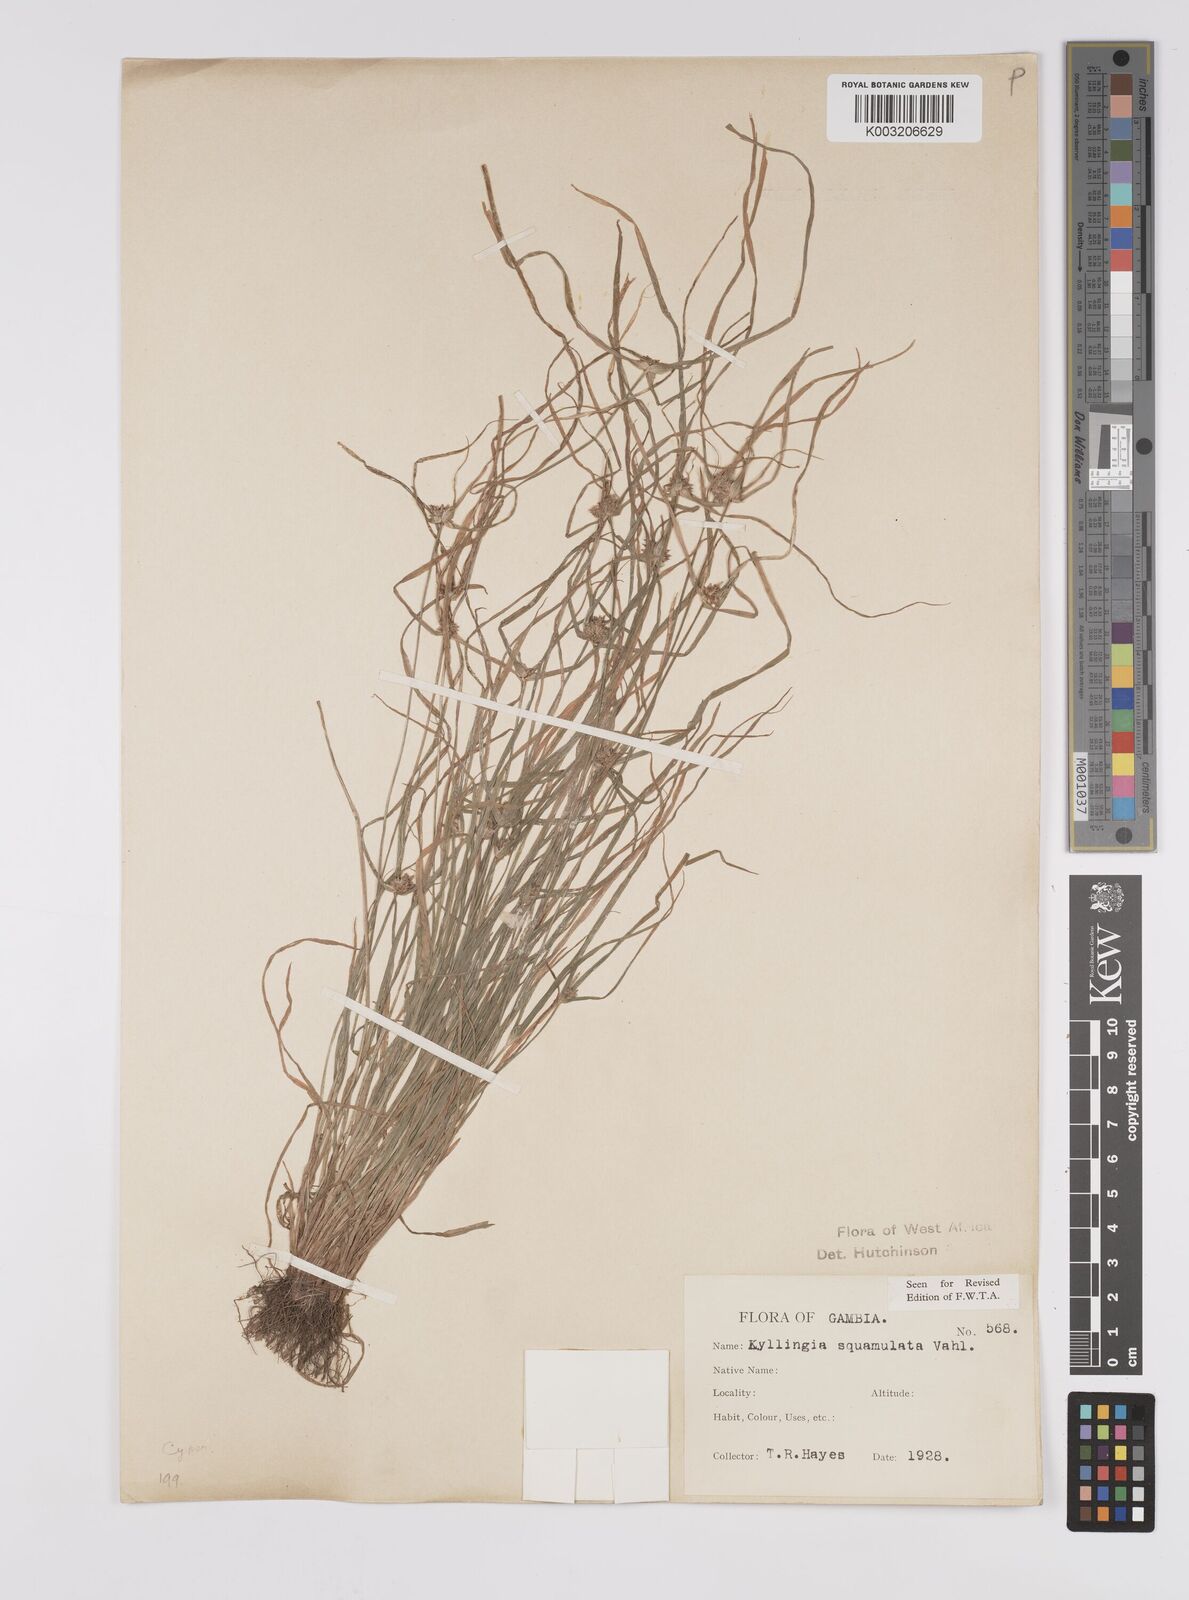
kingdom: Plantae
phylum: Tracheophyta
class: Liliopsida
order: Poales
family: Cyperaceae
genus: Cyperus
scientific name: Cyperus distans
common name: Slender cyperus
